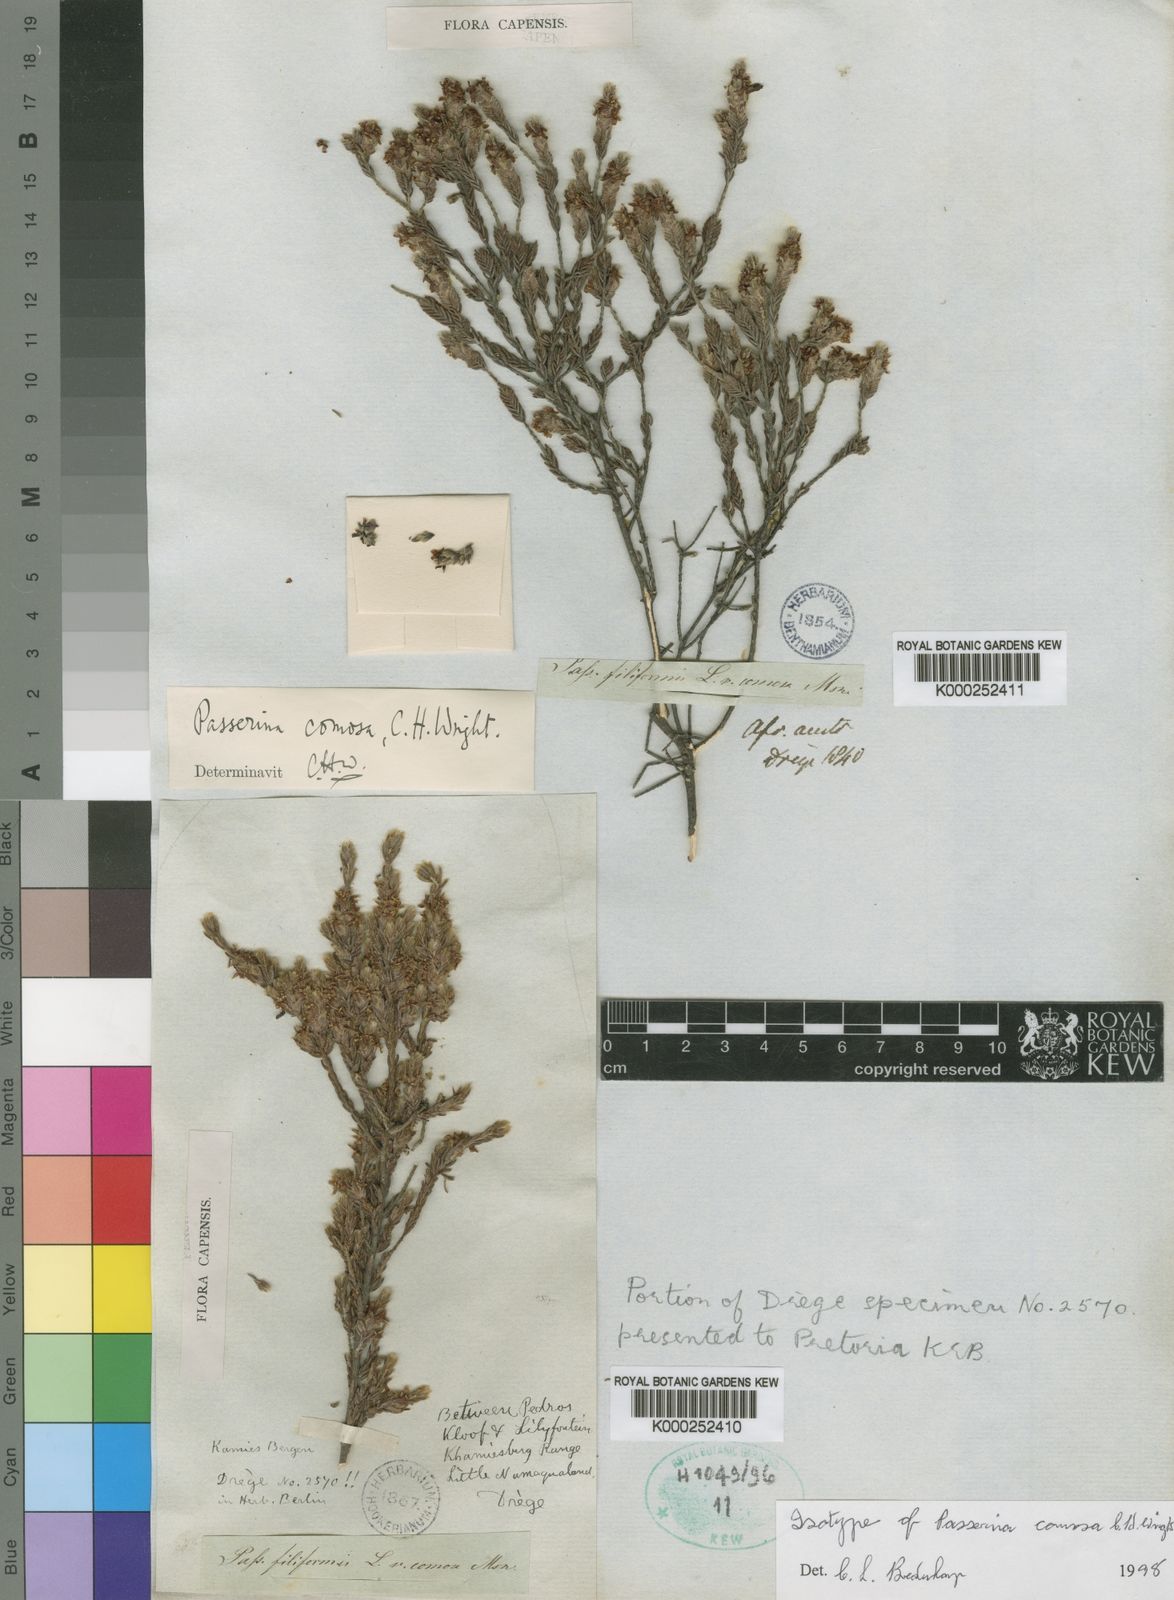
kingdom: Plantae
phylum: Tracheophyta
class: Magnoliopsida
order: Malvales
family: Thymelaeaceae
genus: Passerina
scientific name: Passerina comosa
